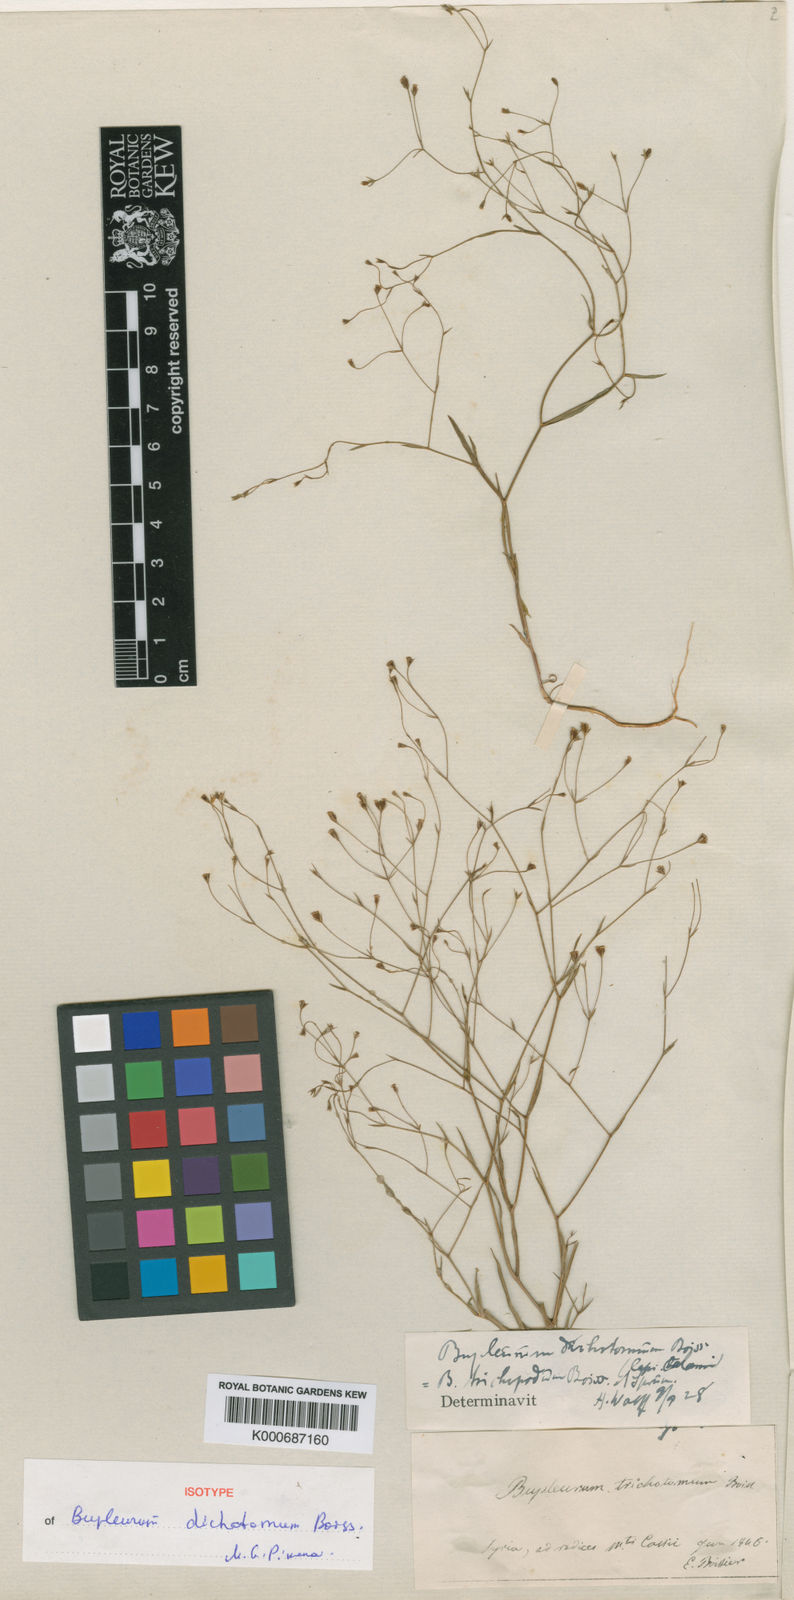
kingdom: Plantae
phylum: Tracheophyta
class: Magnoliopsida
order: Apiales
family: Apiaceae
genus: Bupleurum
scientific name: Bupleurum trichopodum
